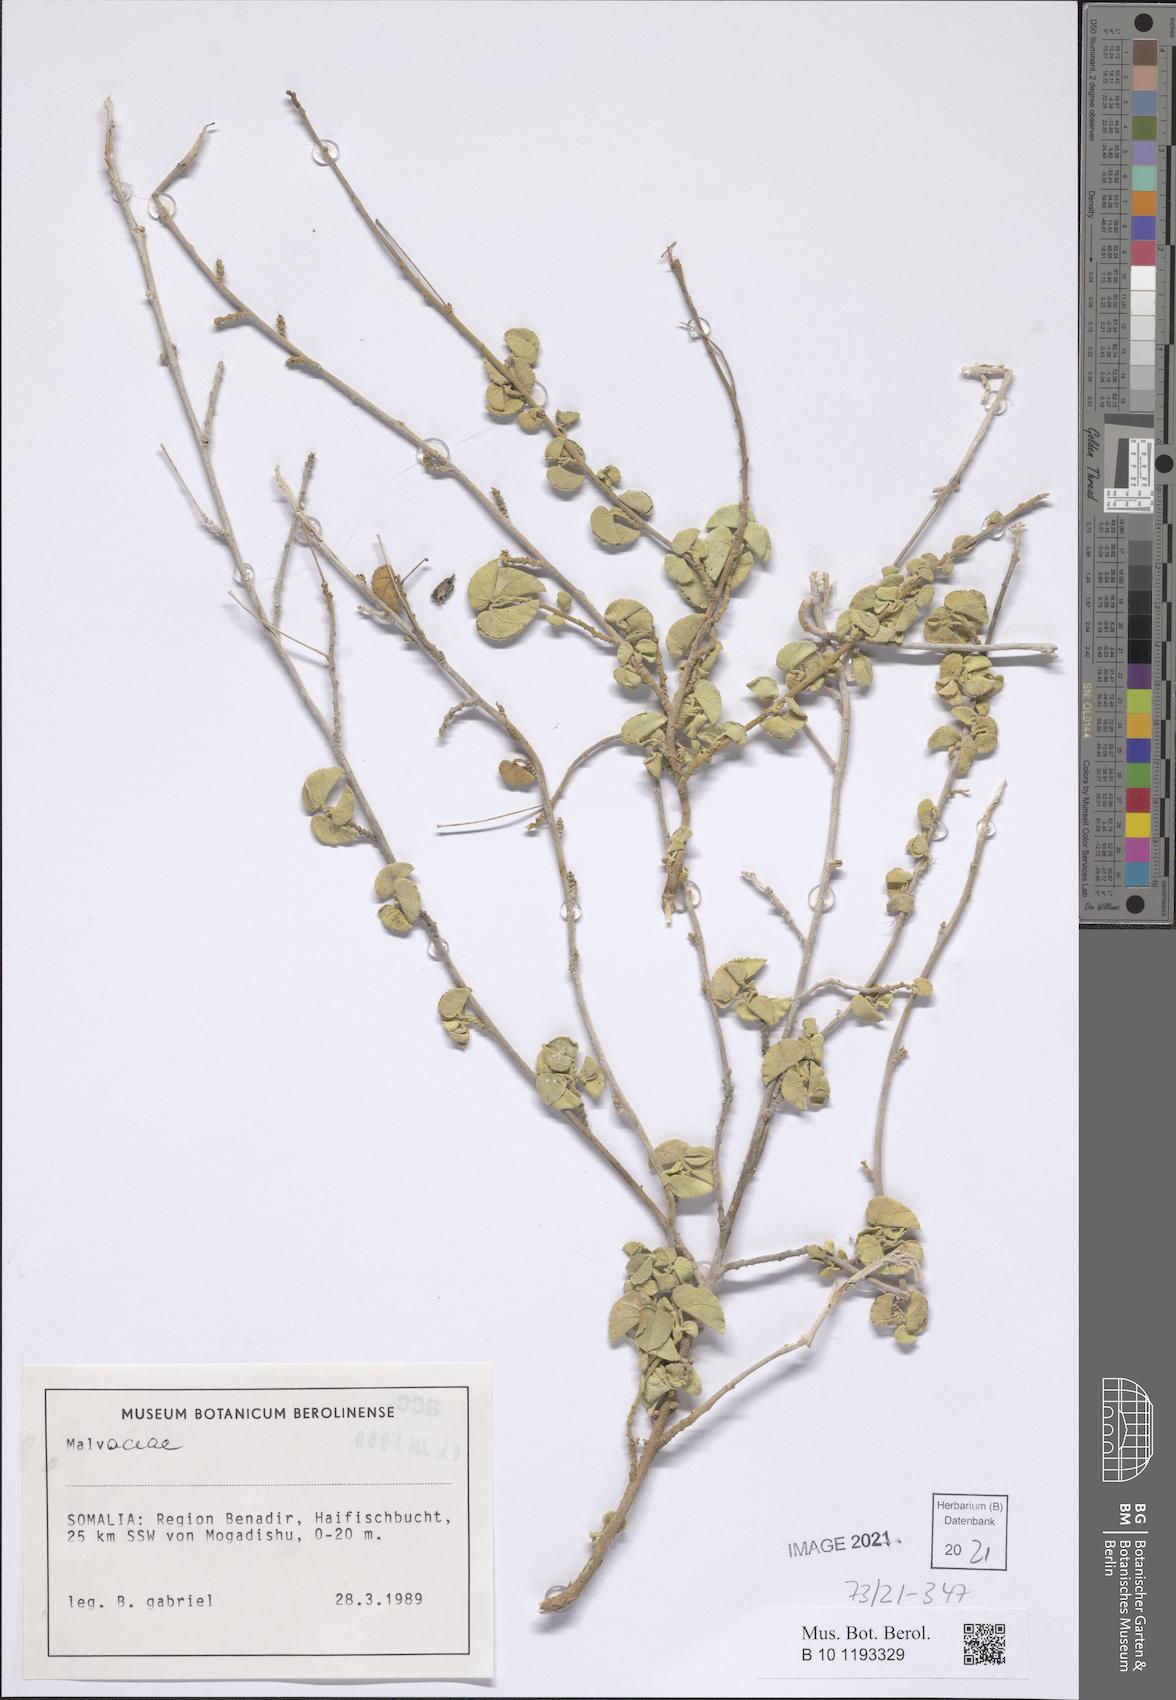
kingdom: Plantae
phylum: Tracheophyta
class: Magnoliopsida
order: Malvales
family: Malvaceae
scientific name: Malvaceae
